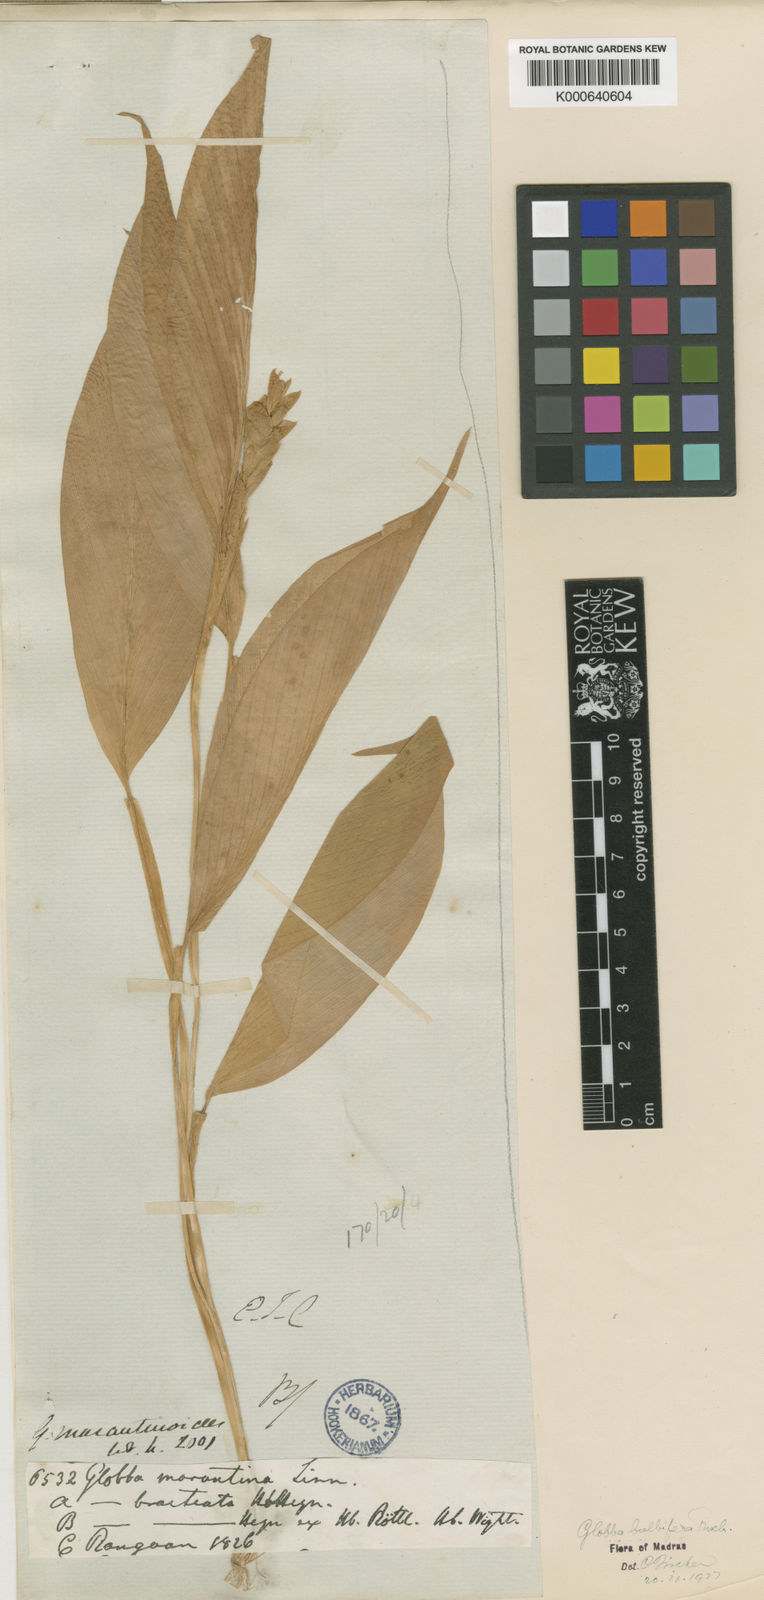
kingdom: Plantae
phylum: Tracheophyta
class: Liliopsida
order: Zingiberales
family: Zingiberaceae
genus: Globba
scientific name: Globba marantina
